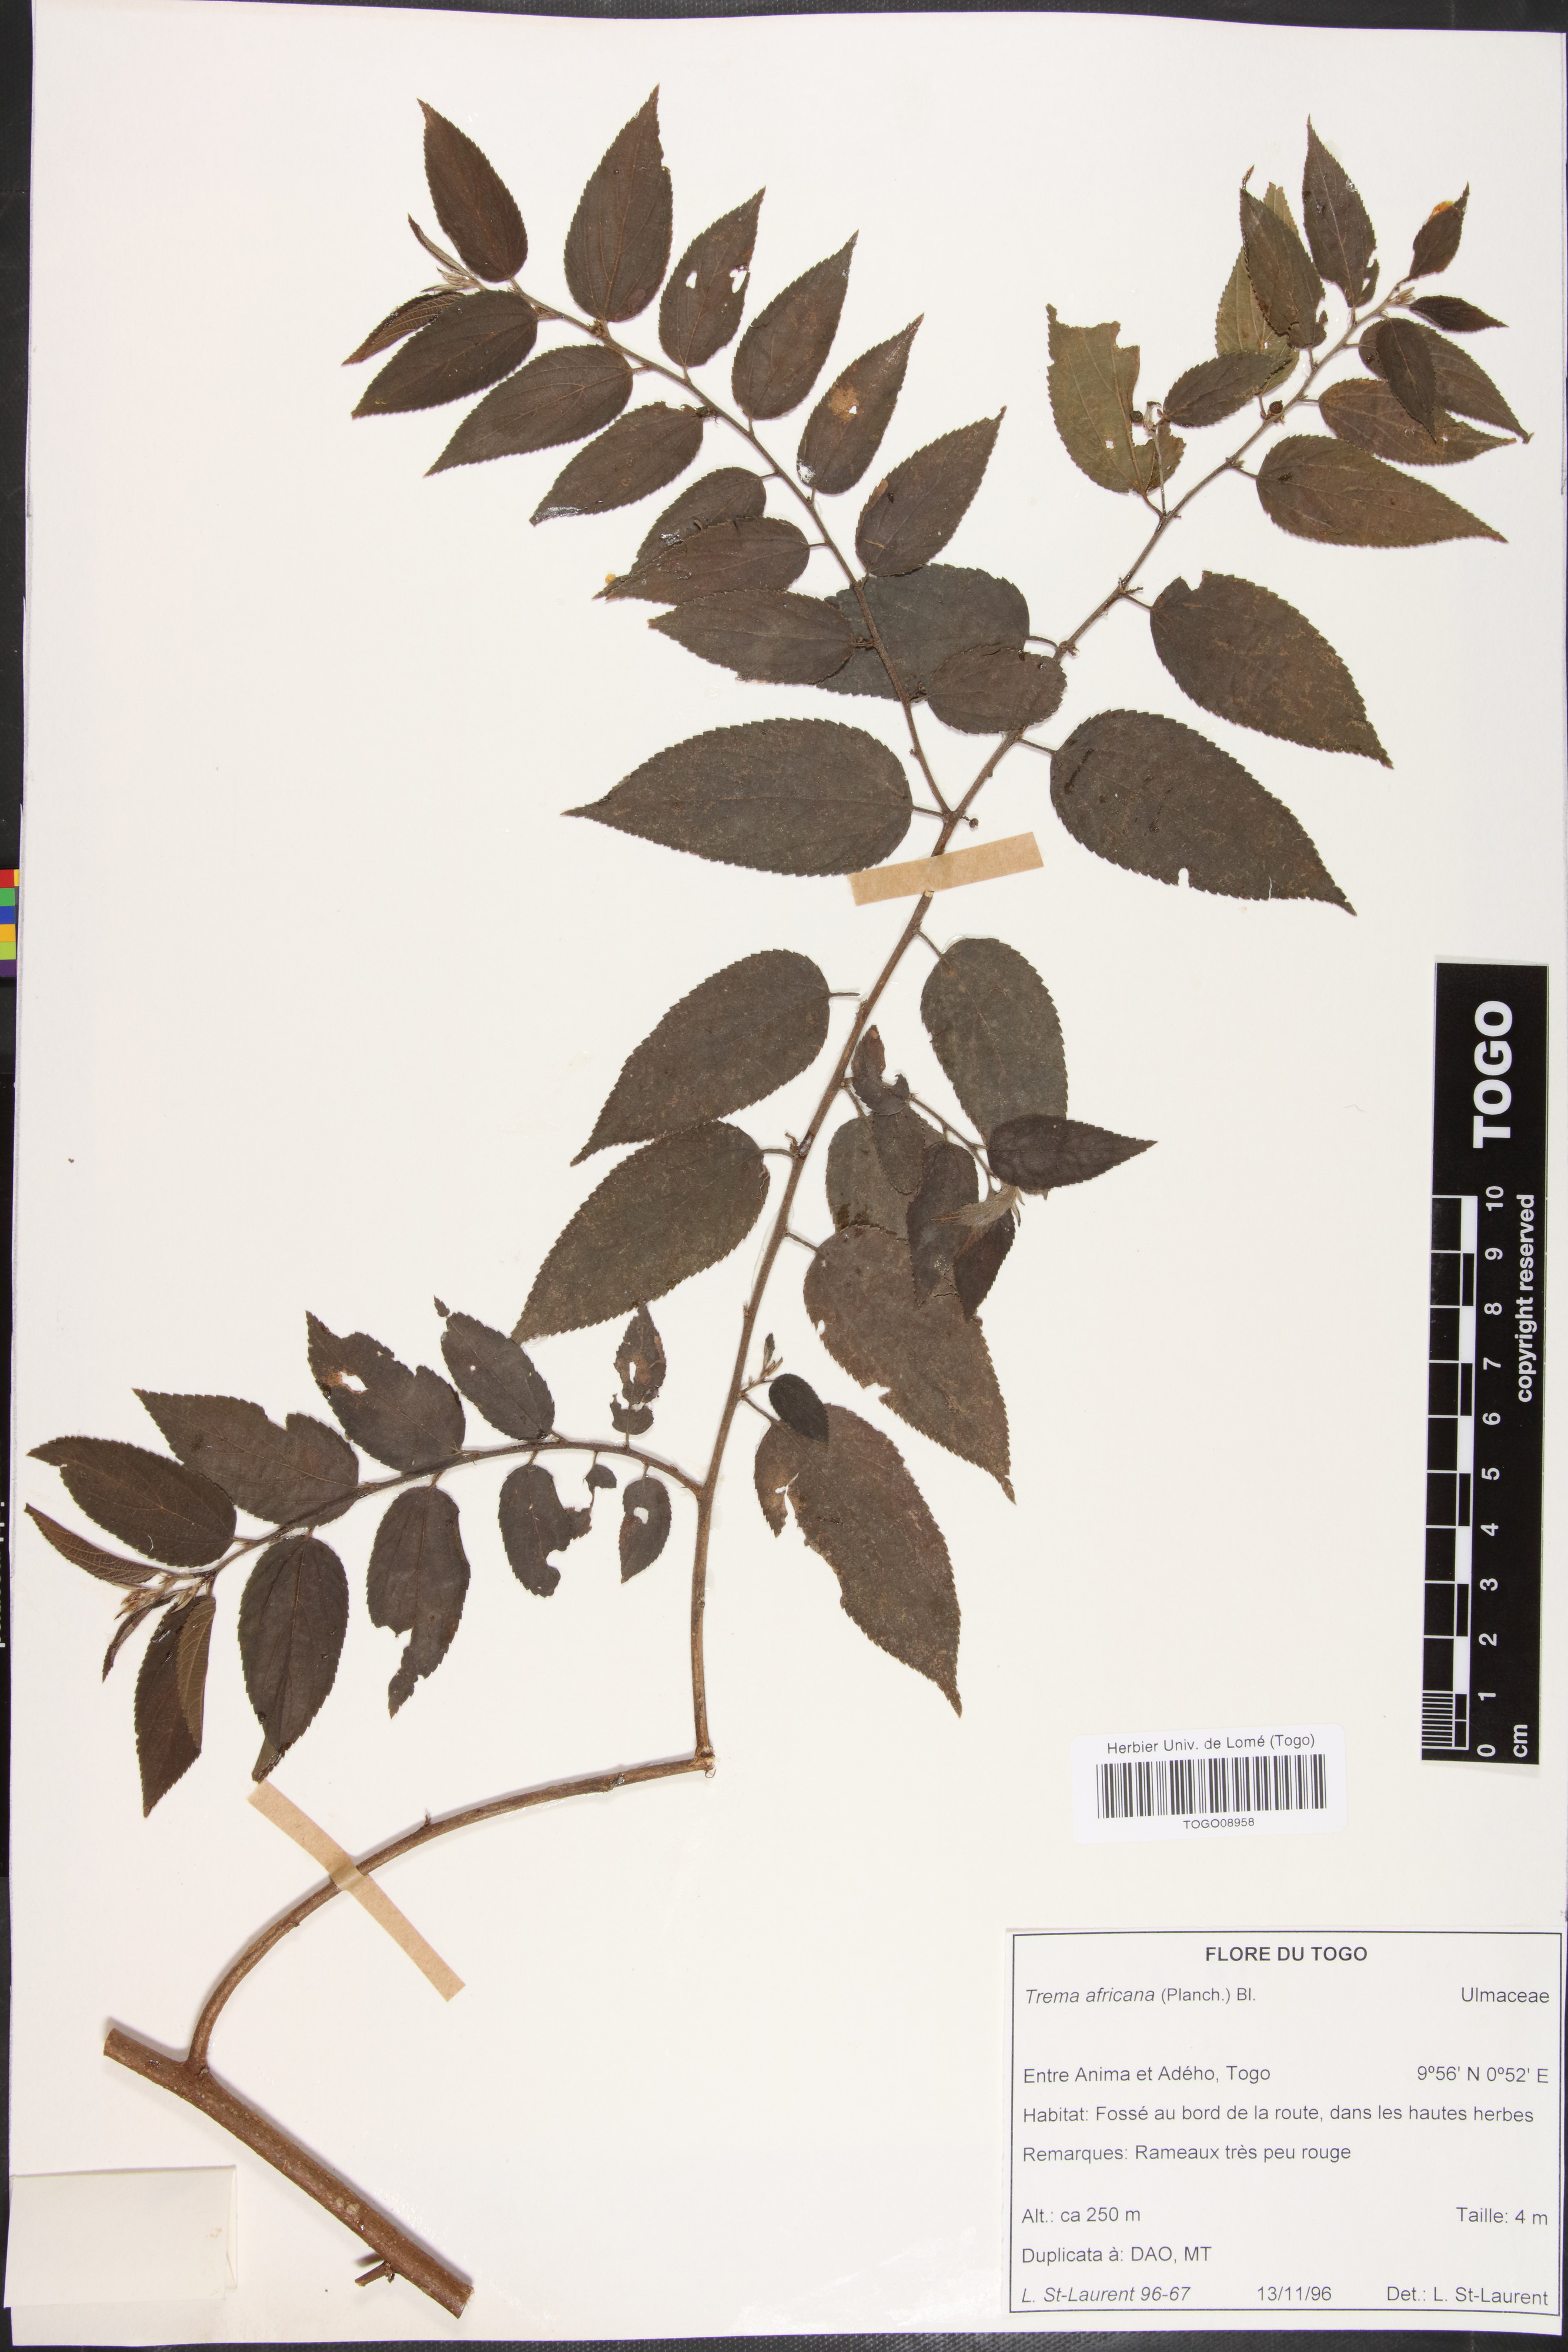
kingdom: Plantae
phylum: Tracheophyta
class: Magnoliopsida
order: Rosales
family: Cannabaceae
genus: Trema
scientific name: Trema orientale
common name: Indian charcoal tree
